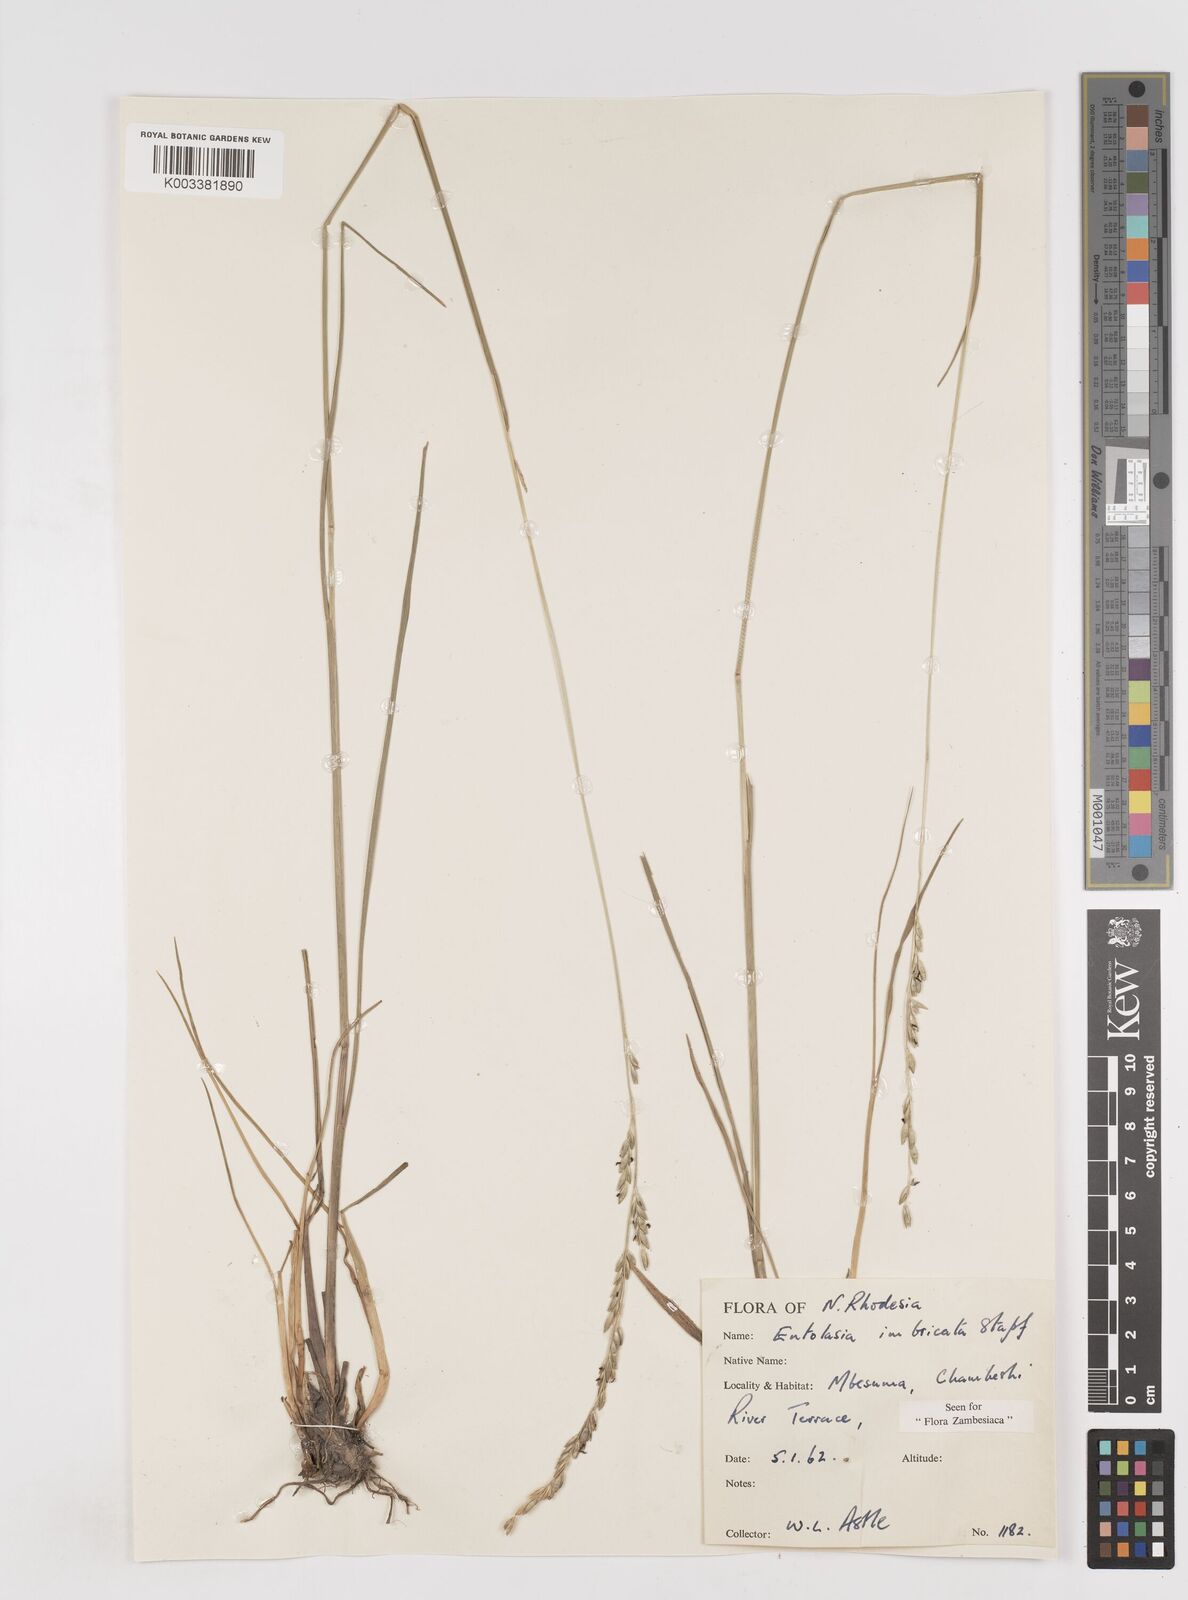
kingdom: Plantae
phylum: Tracheophyta
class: Liliopsida
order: Poales
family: Poaceae
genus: Entolasia
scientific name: Entolasia imbricata
